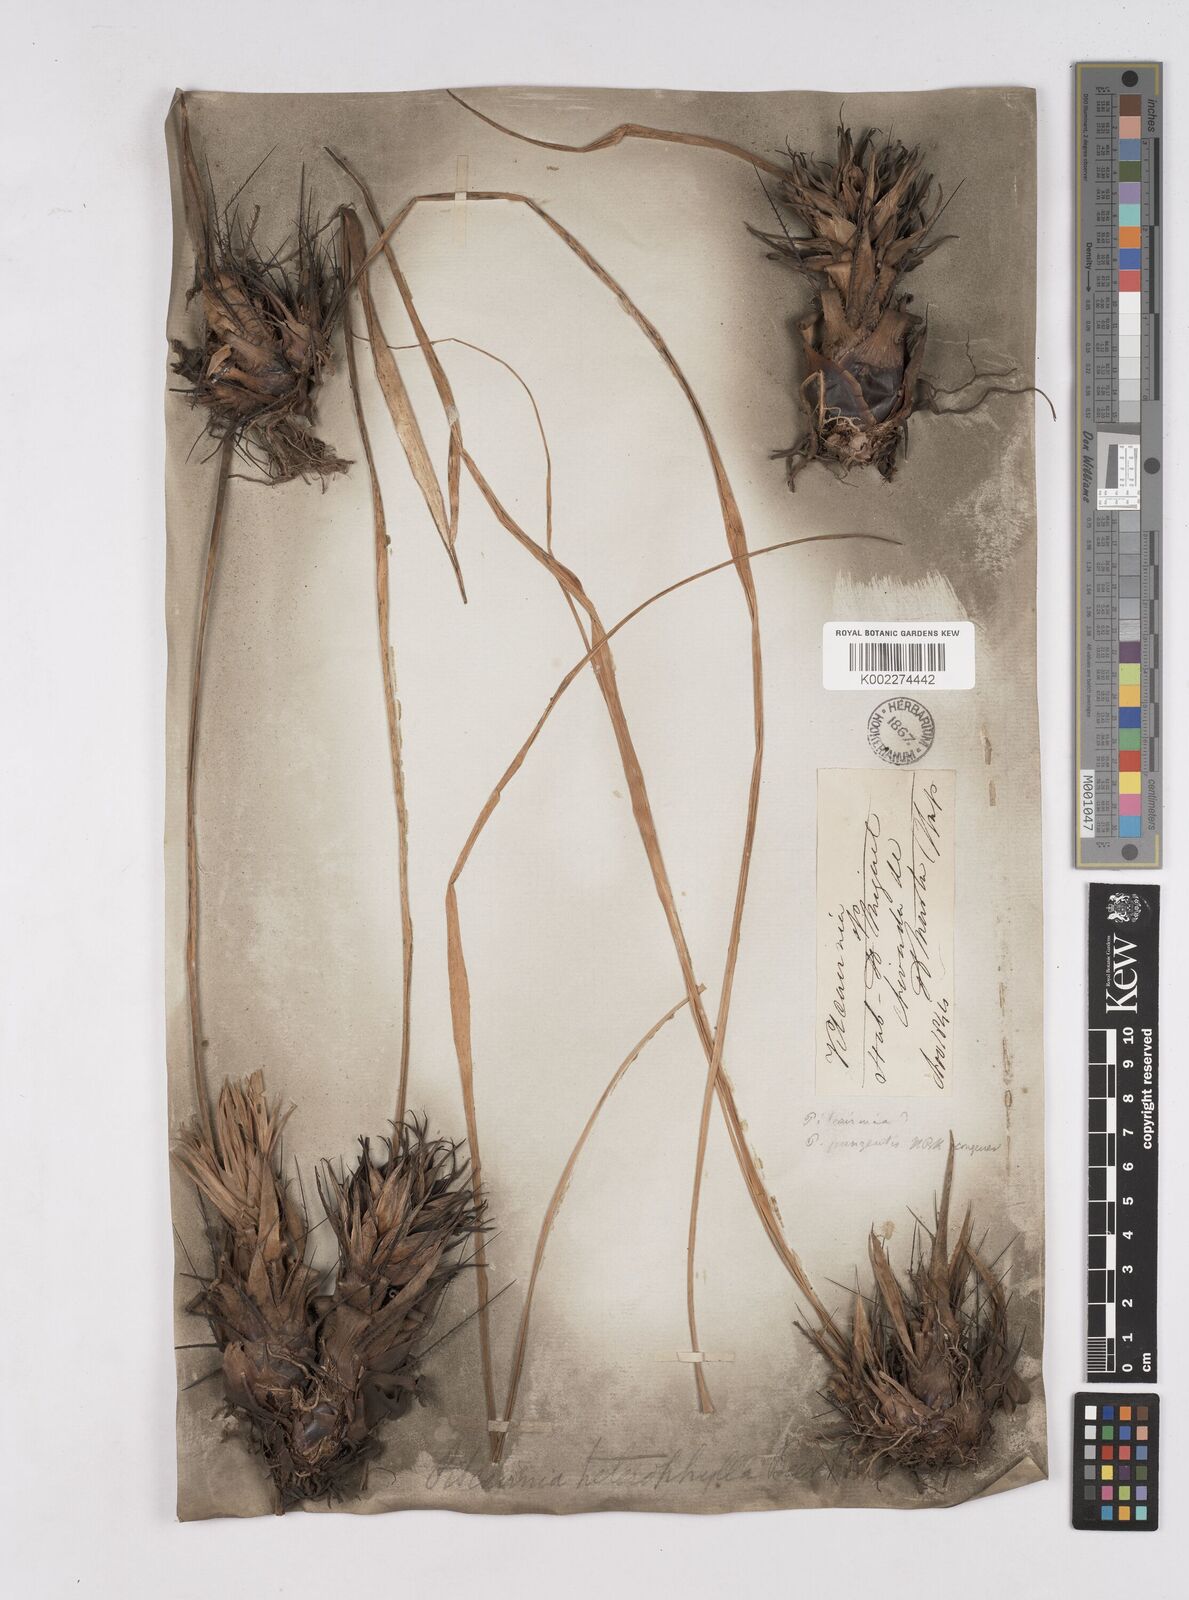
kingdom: Plantae
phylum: Tracheophyta
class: Liliopsida
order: Poales
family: Bromeliaceae
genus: Pitcairnia
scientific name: Pitcairnia heterophylla
